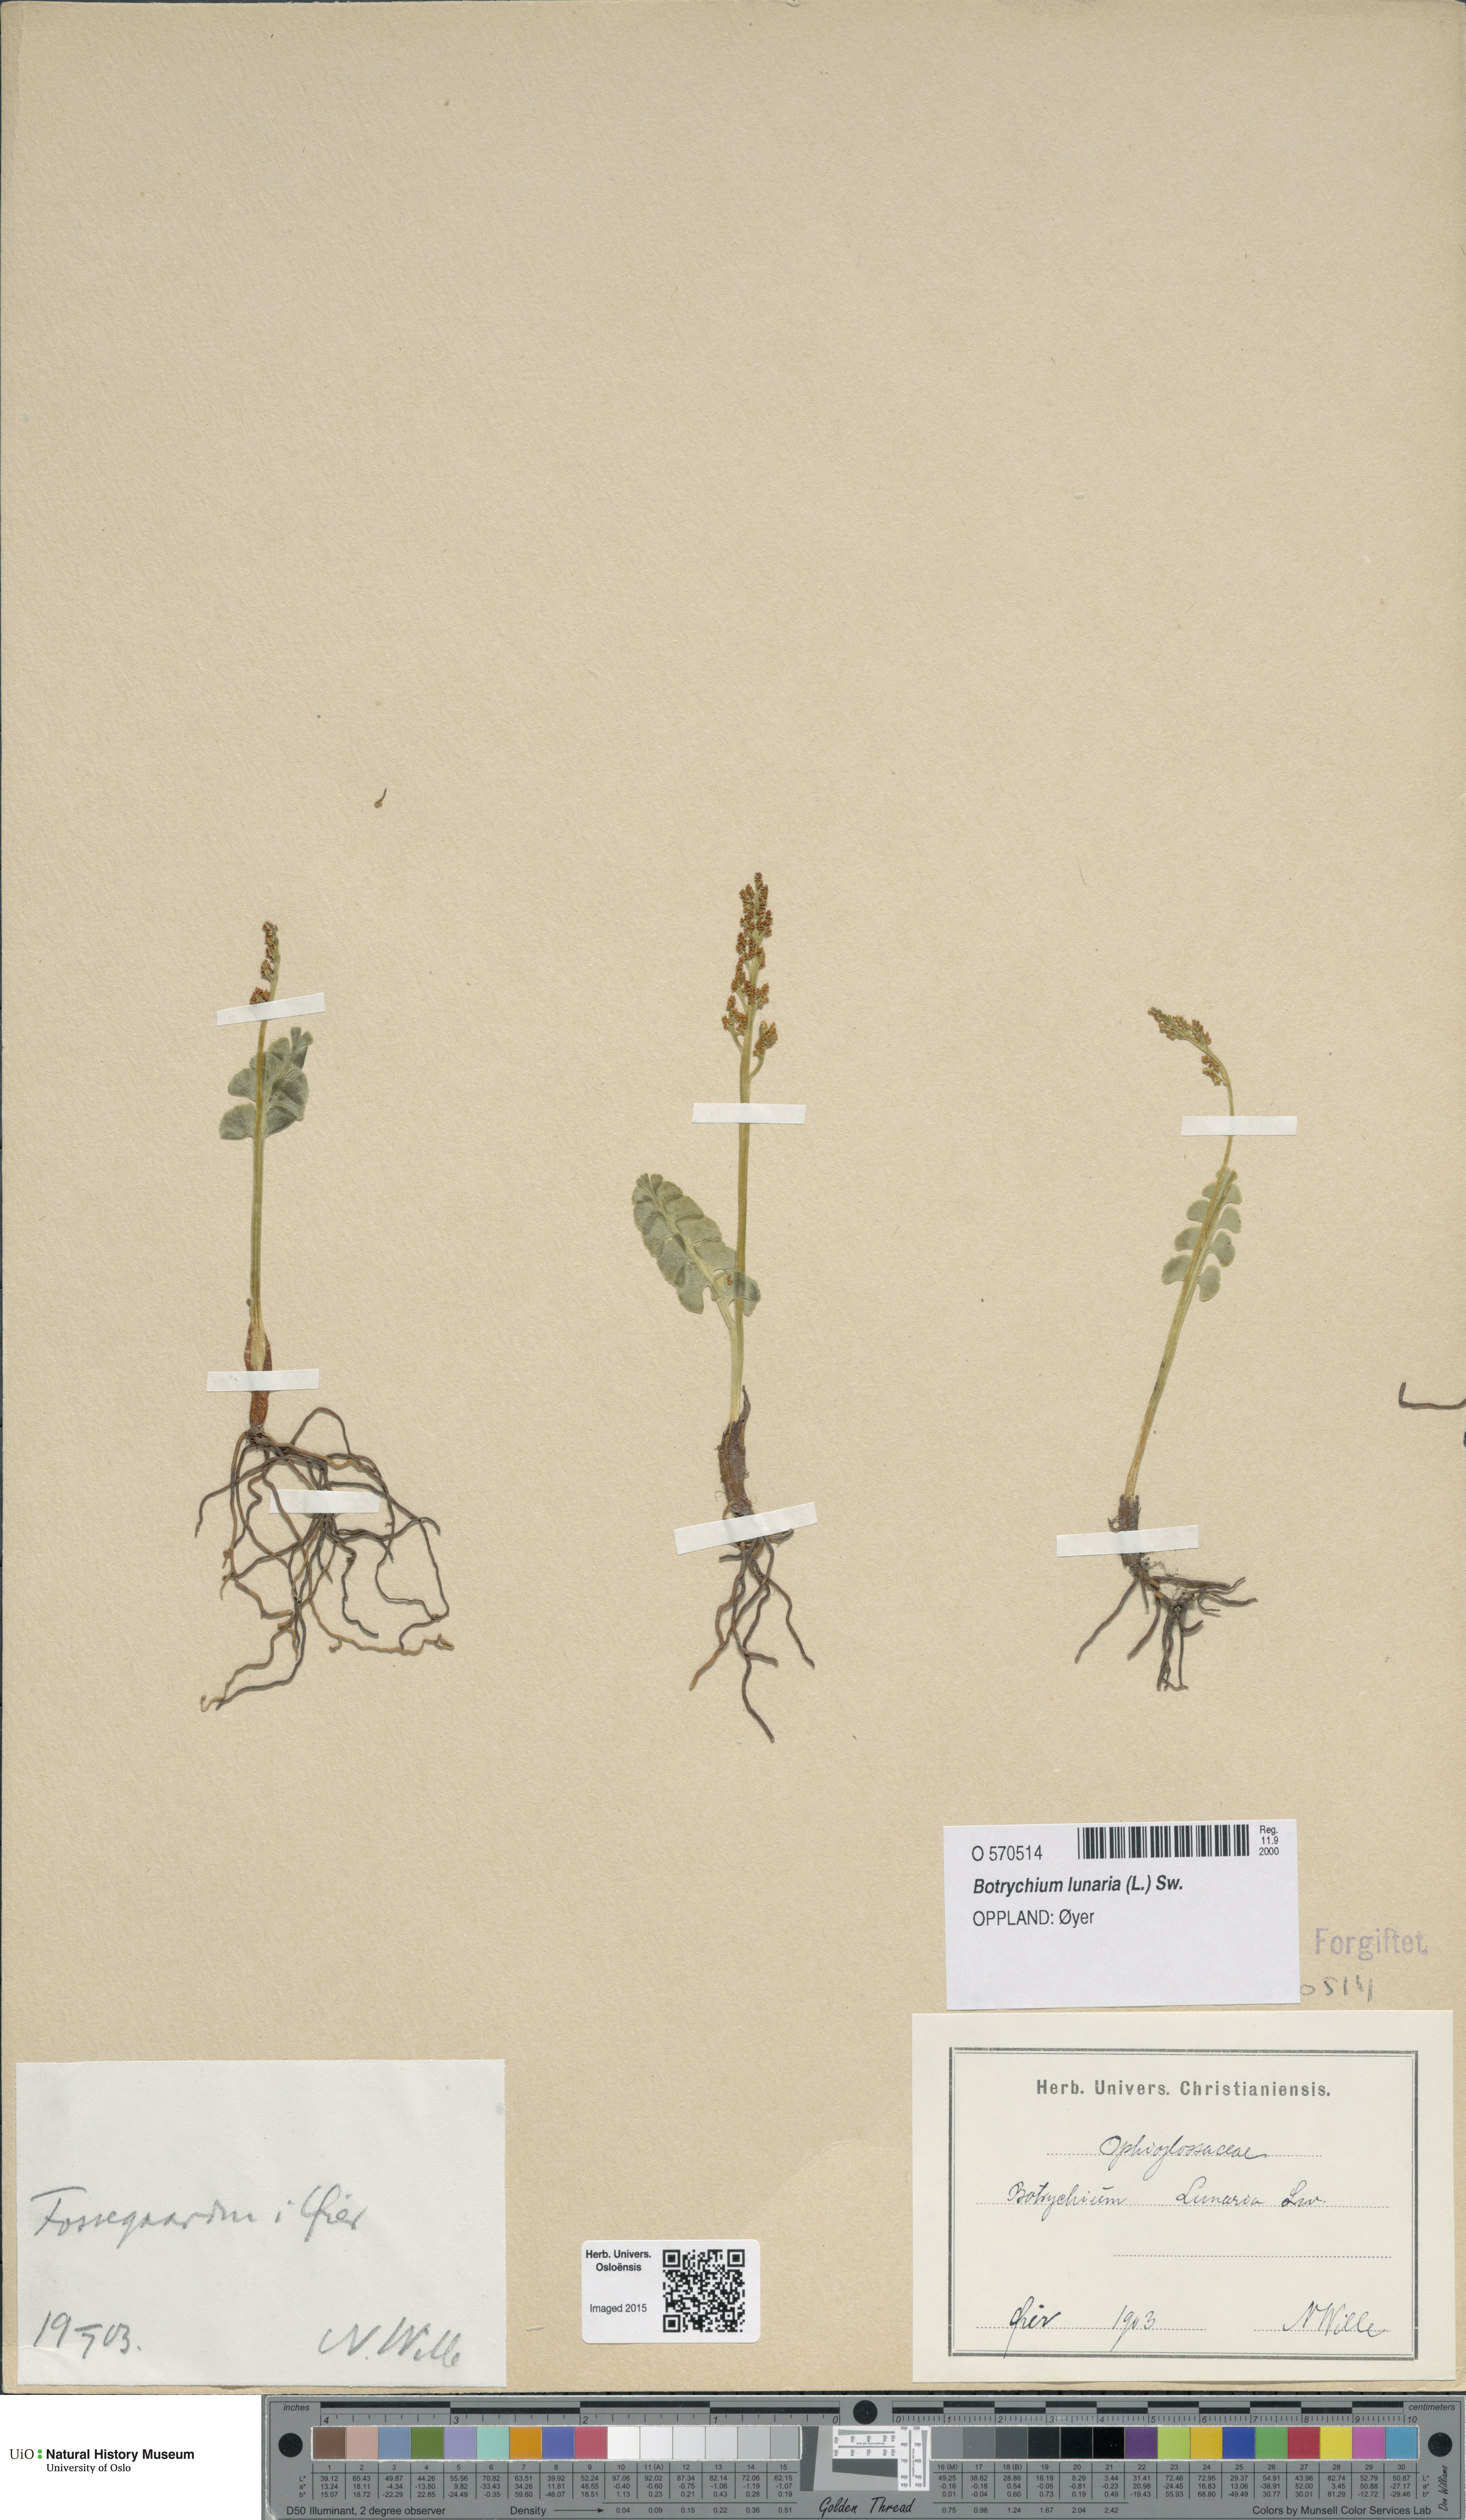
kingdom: Plantae
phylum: Tracheophyta
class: Polypodiopsida
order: Ophioglossales
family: Ophioglossaceae
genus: Botrychium
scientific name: Botrychium lunaria
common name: Moonwort
